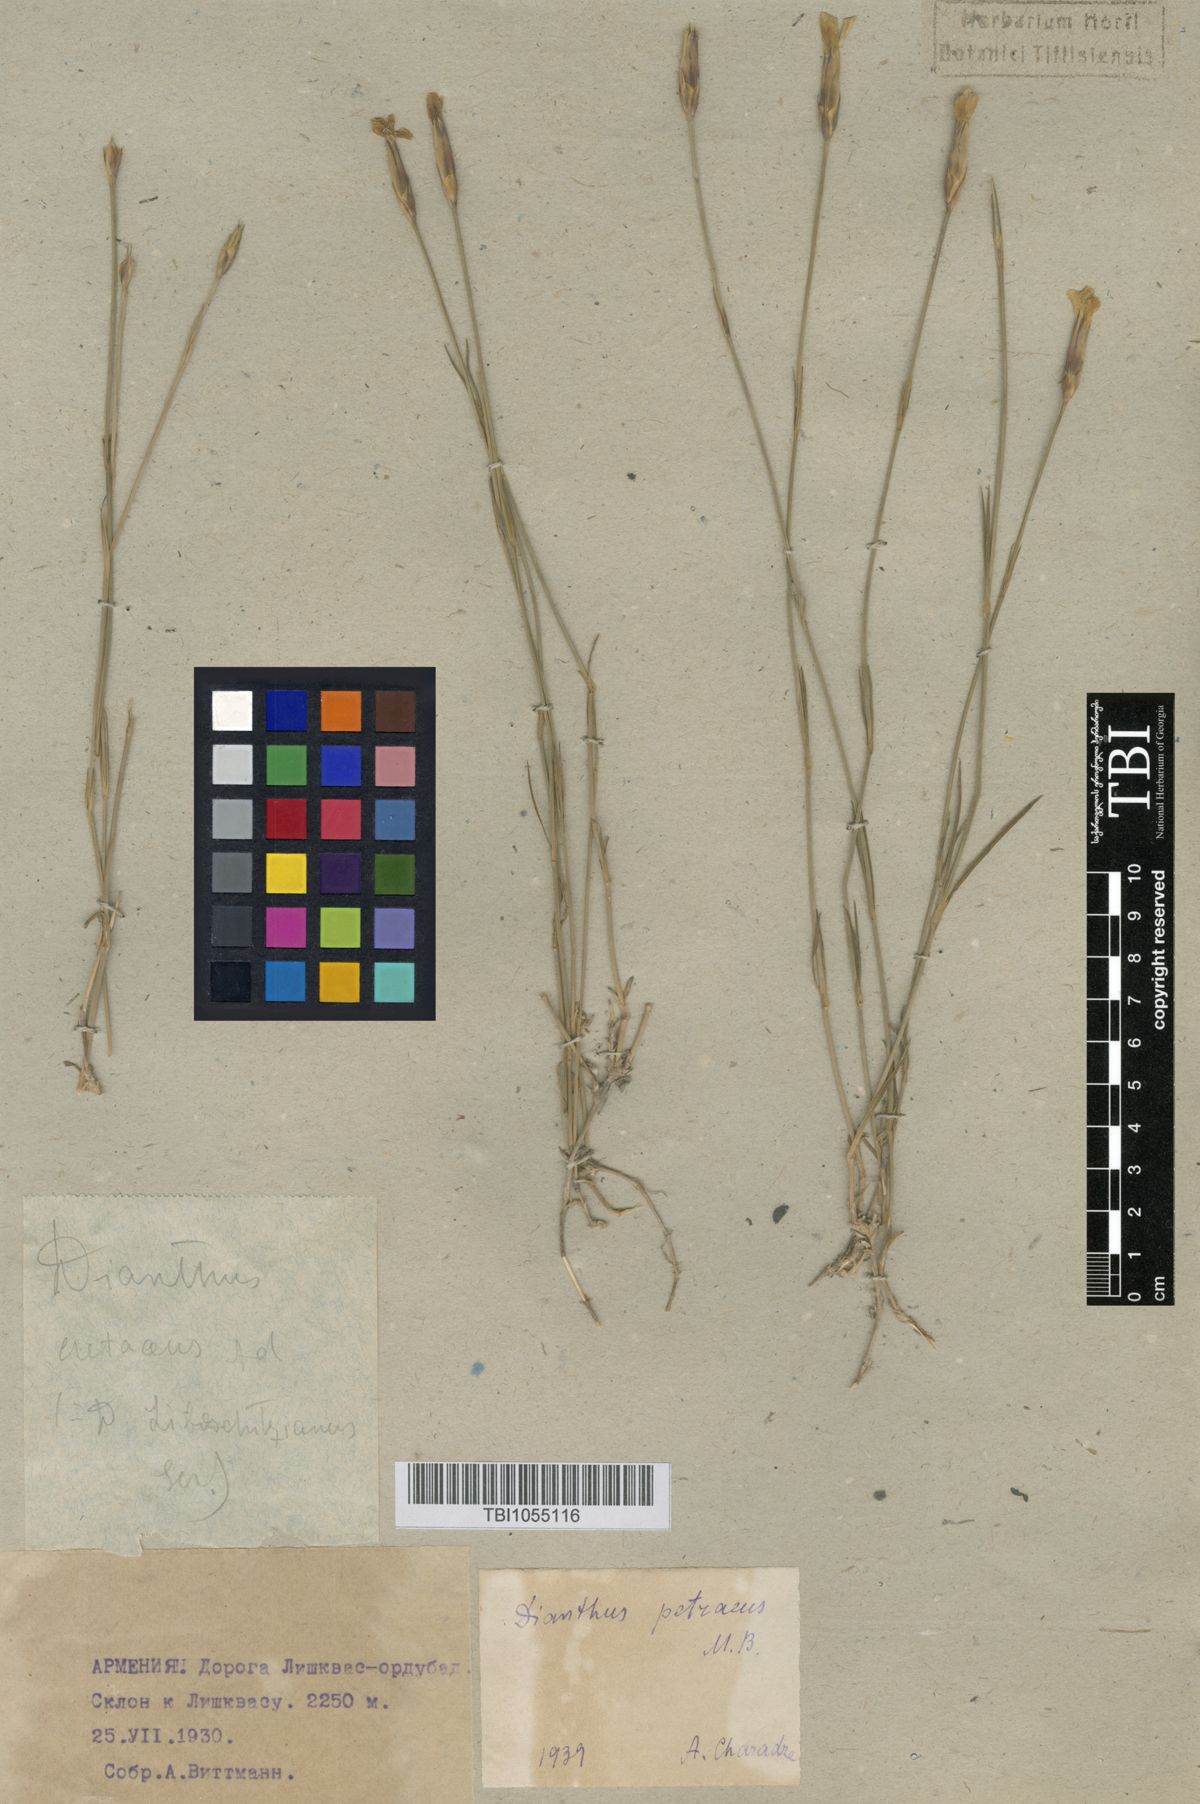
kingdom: Plantae
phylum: Tracheophyta
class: Magnoliopsida
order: Caryophyllales
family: Caryophyllaceae
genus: Dianthus
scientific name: Dianthus cretaceus
